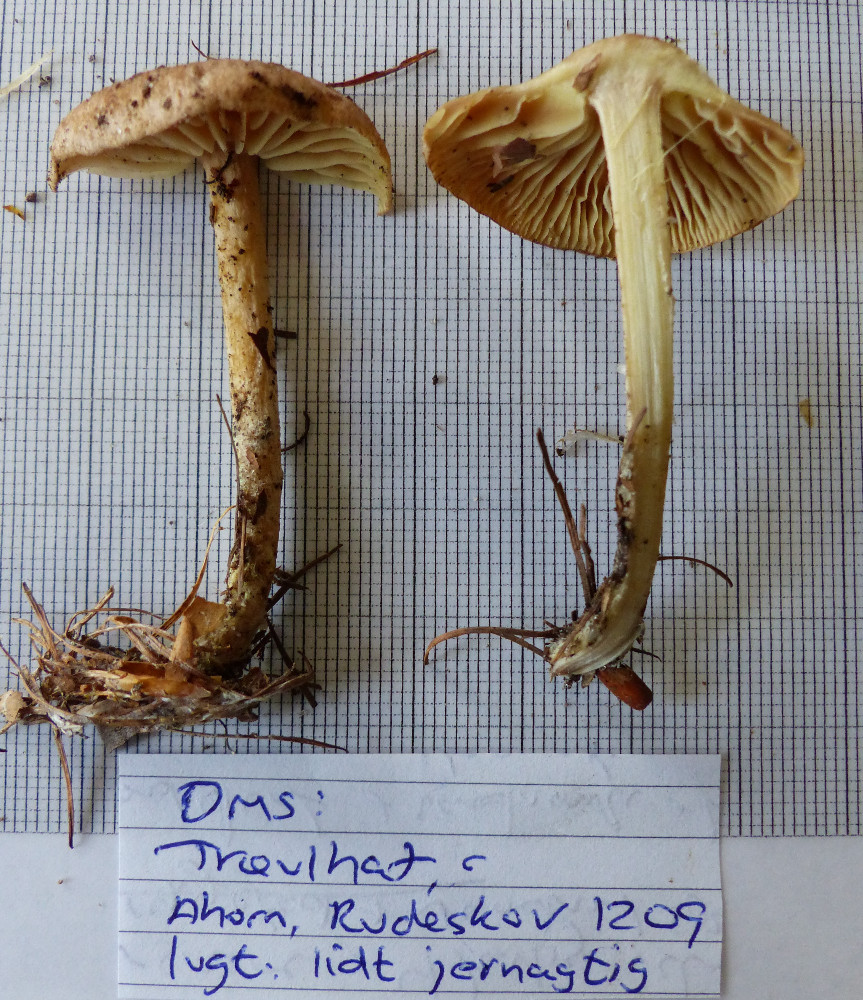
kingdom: Fungi
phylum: Basidiomycota
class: Agaricomycetes
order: Agaricales
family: Omphalotaceae
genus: Collybiopsis
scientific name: Collybiopsis peronata
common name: bestøvlet fladhat
